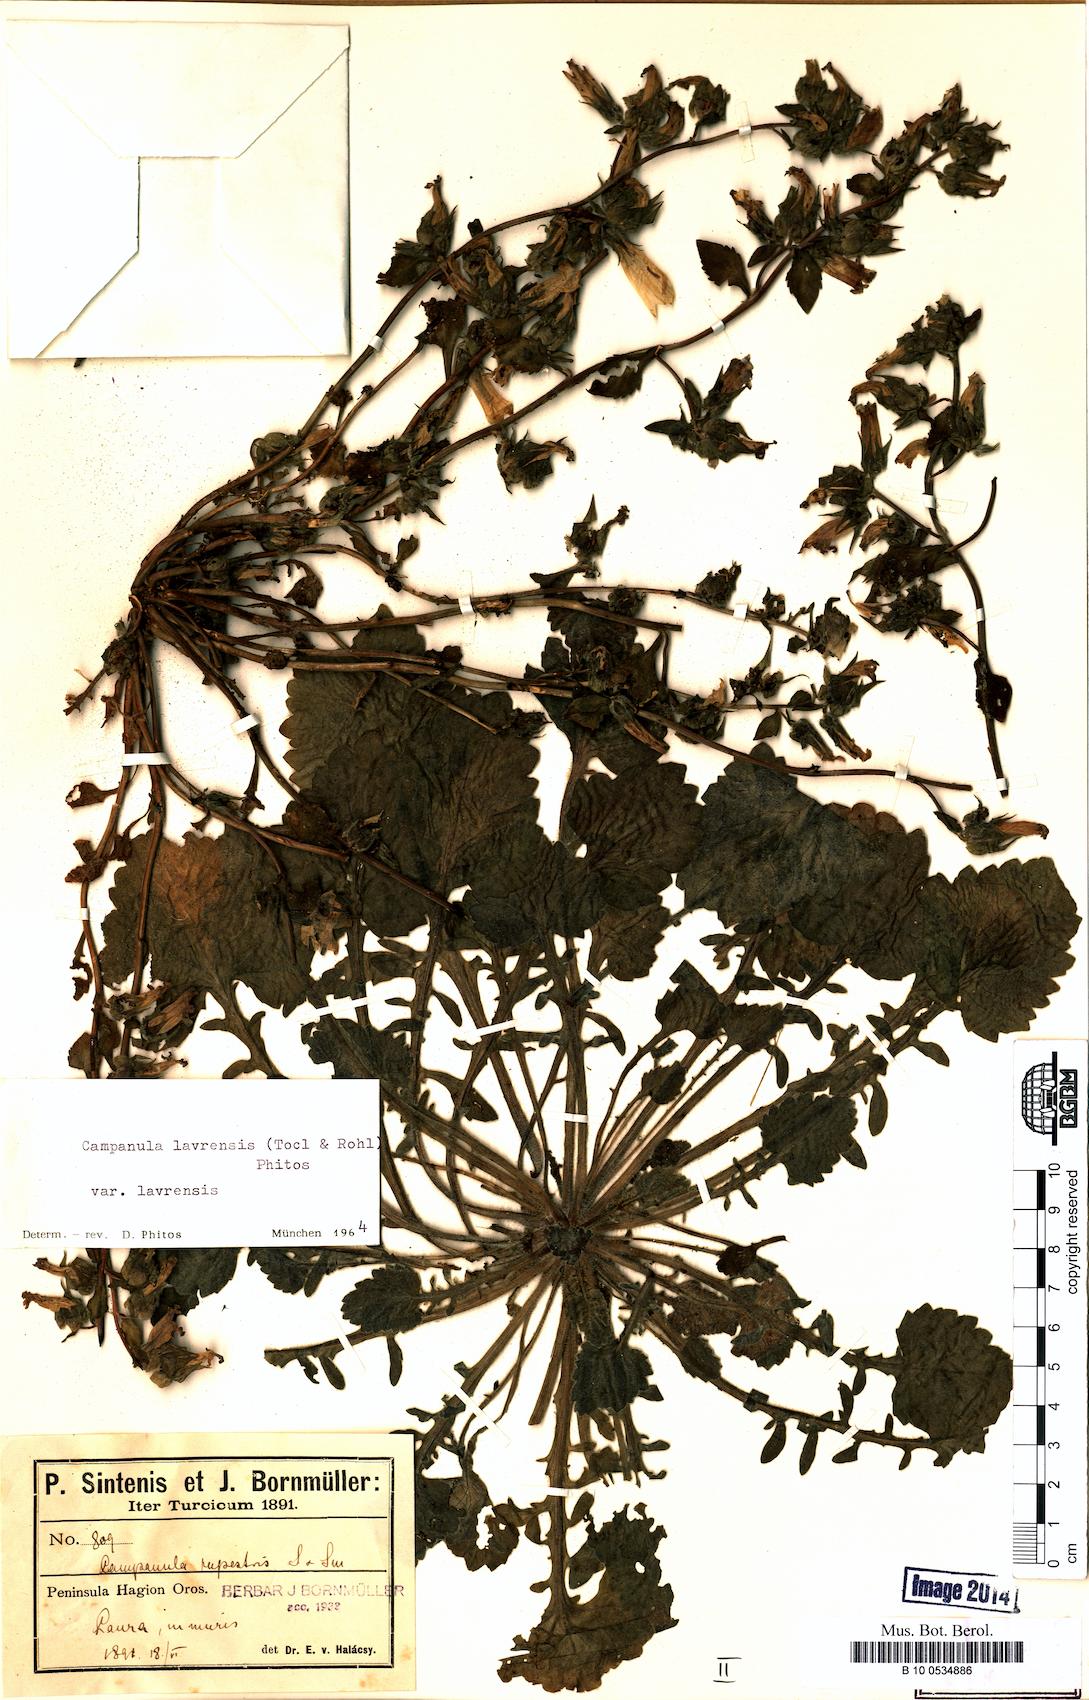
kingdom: Plantae
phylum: Tracheophyta
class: Magnoliopsida
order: Asterales
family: Campanulaceae
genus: Campanula
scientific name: Campanula lavrensis
